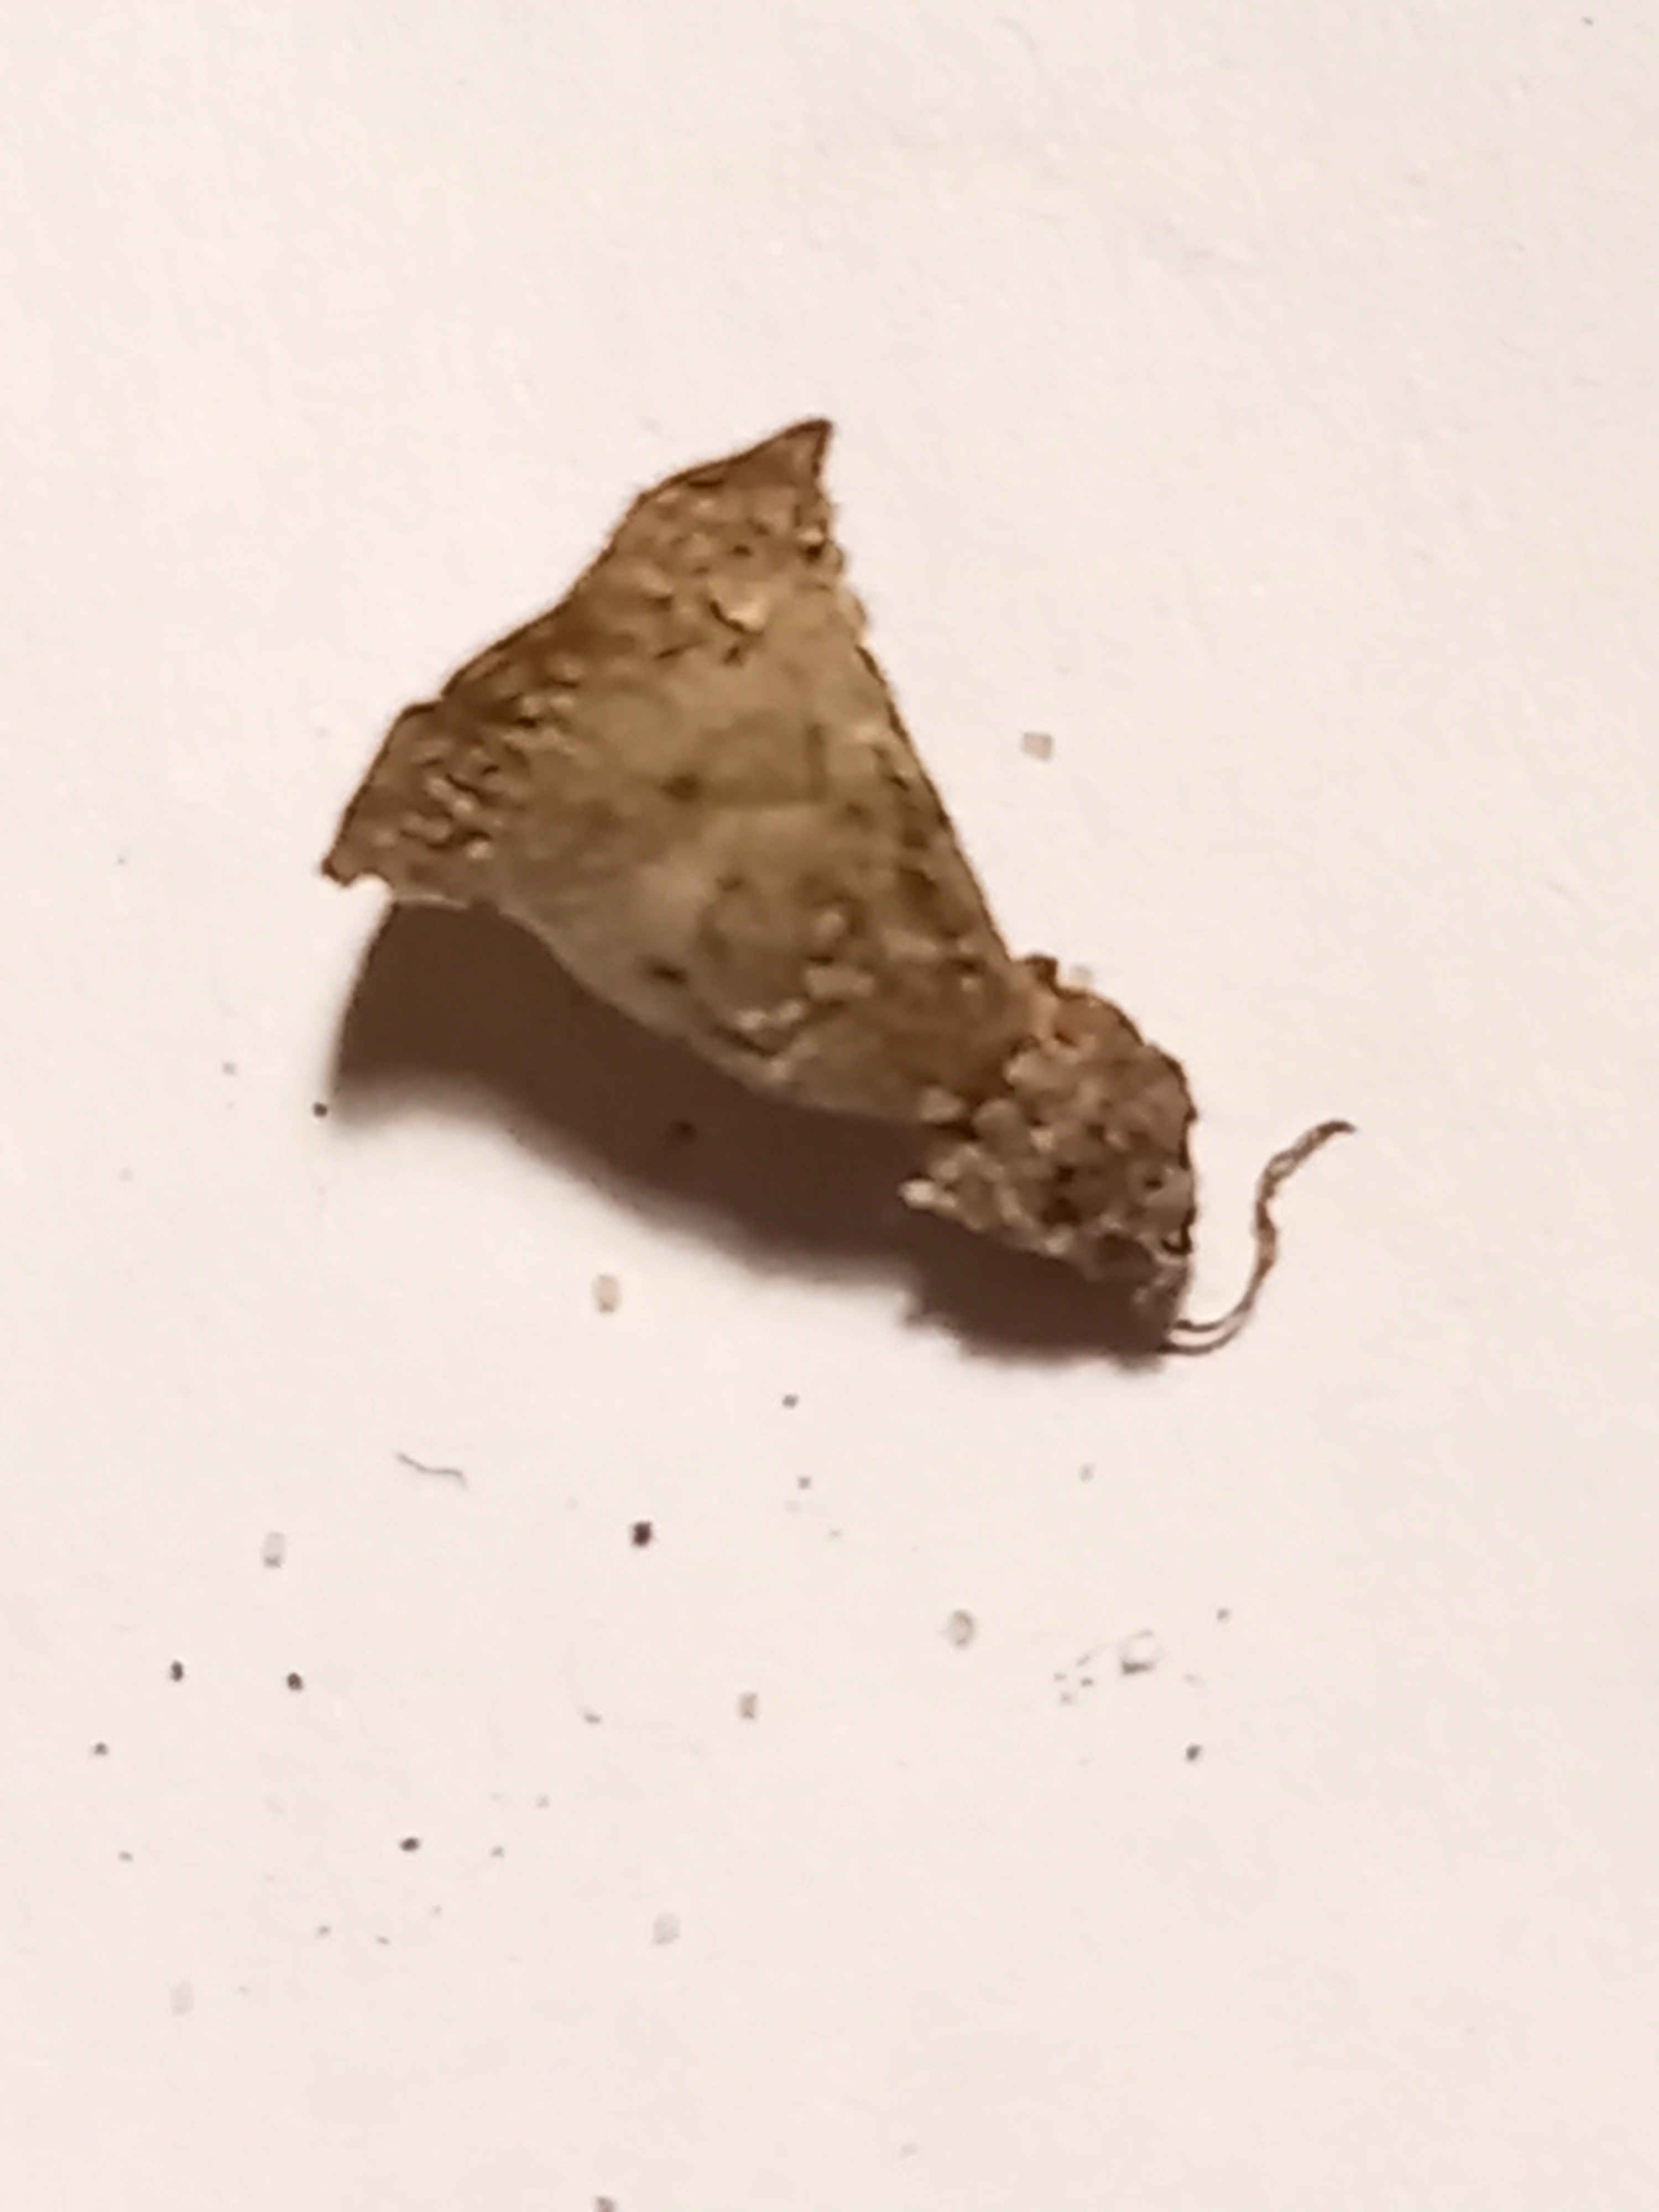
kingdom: Fungi
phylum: Basidiomycota
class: Agaricomycetes
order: Agaricales
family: Agaricaceae
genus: Cyathus
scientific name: Cyathus olla
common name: klokke-redesvamp
